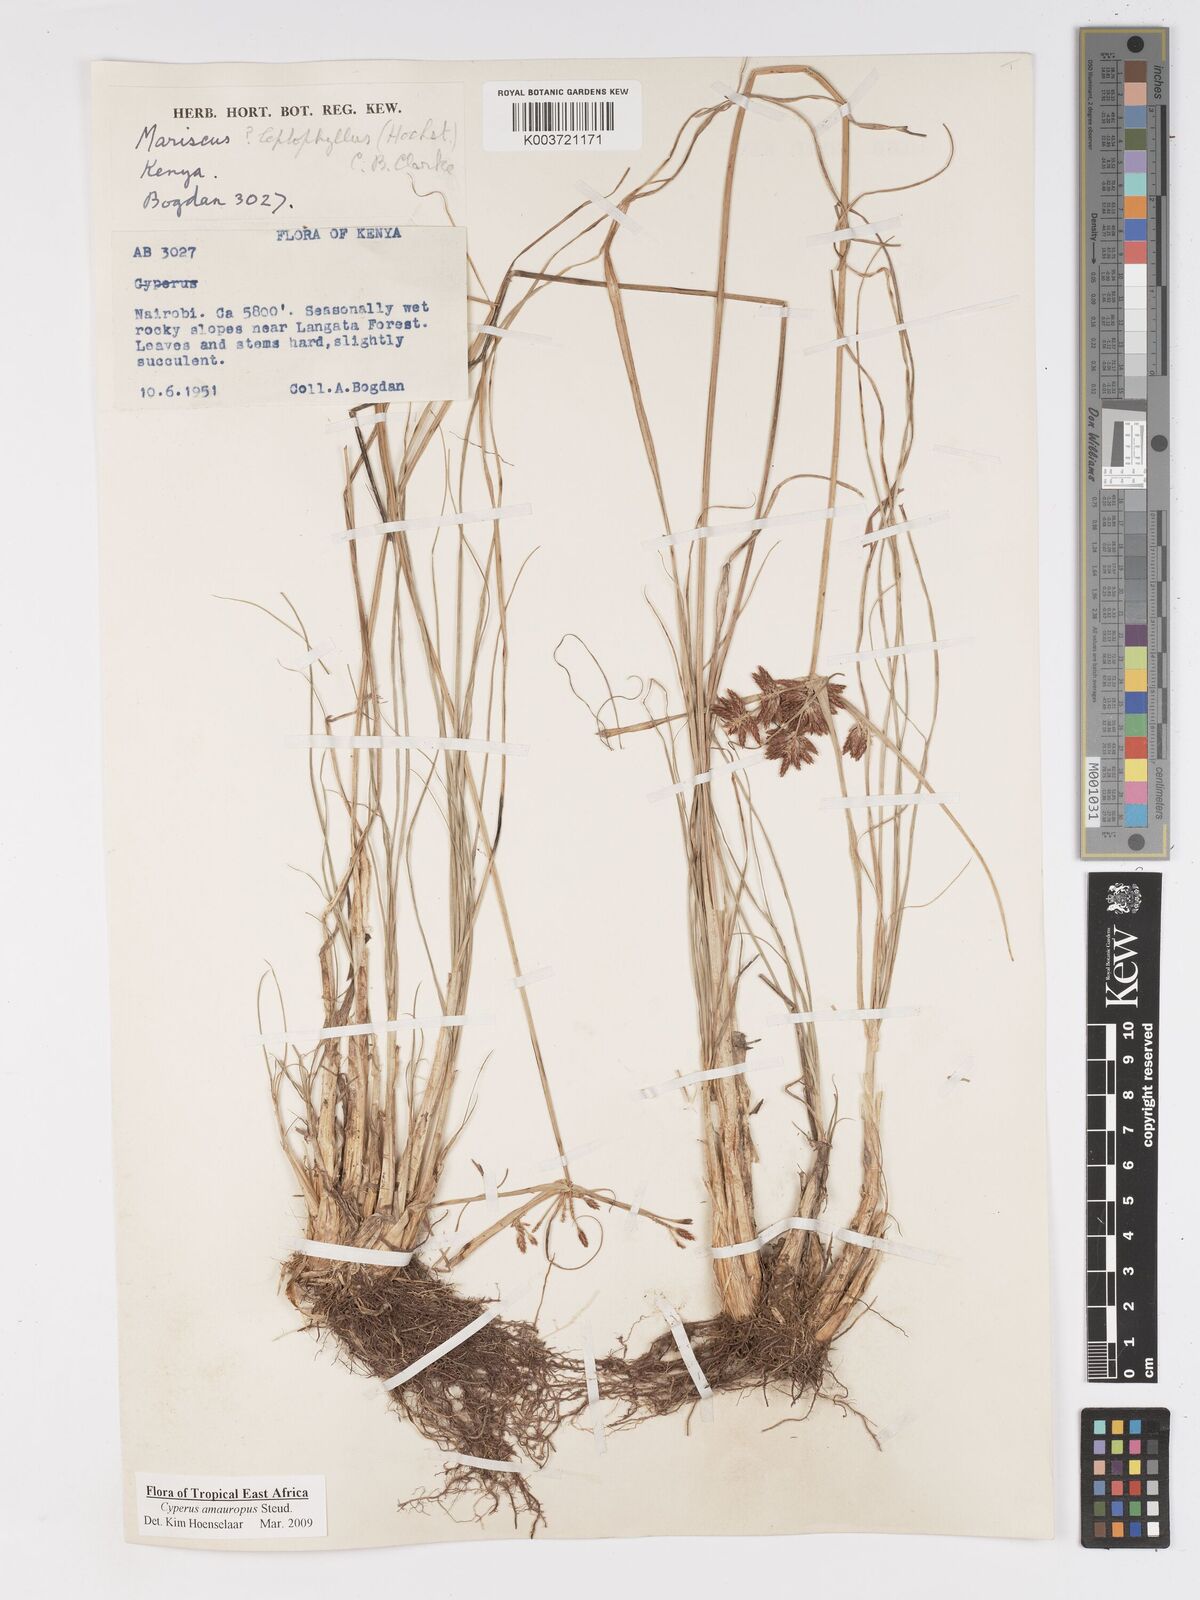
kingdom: Plantae
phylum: Tracheophyta
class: Liliopsida
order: Poales
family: Cyperaceae
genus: Cyperus
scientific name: Cyperus amauropus
